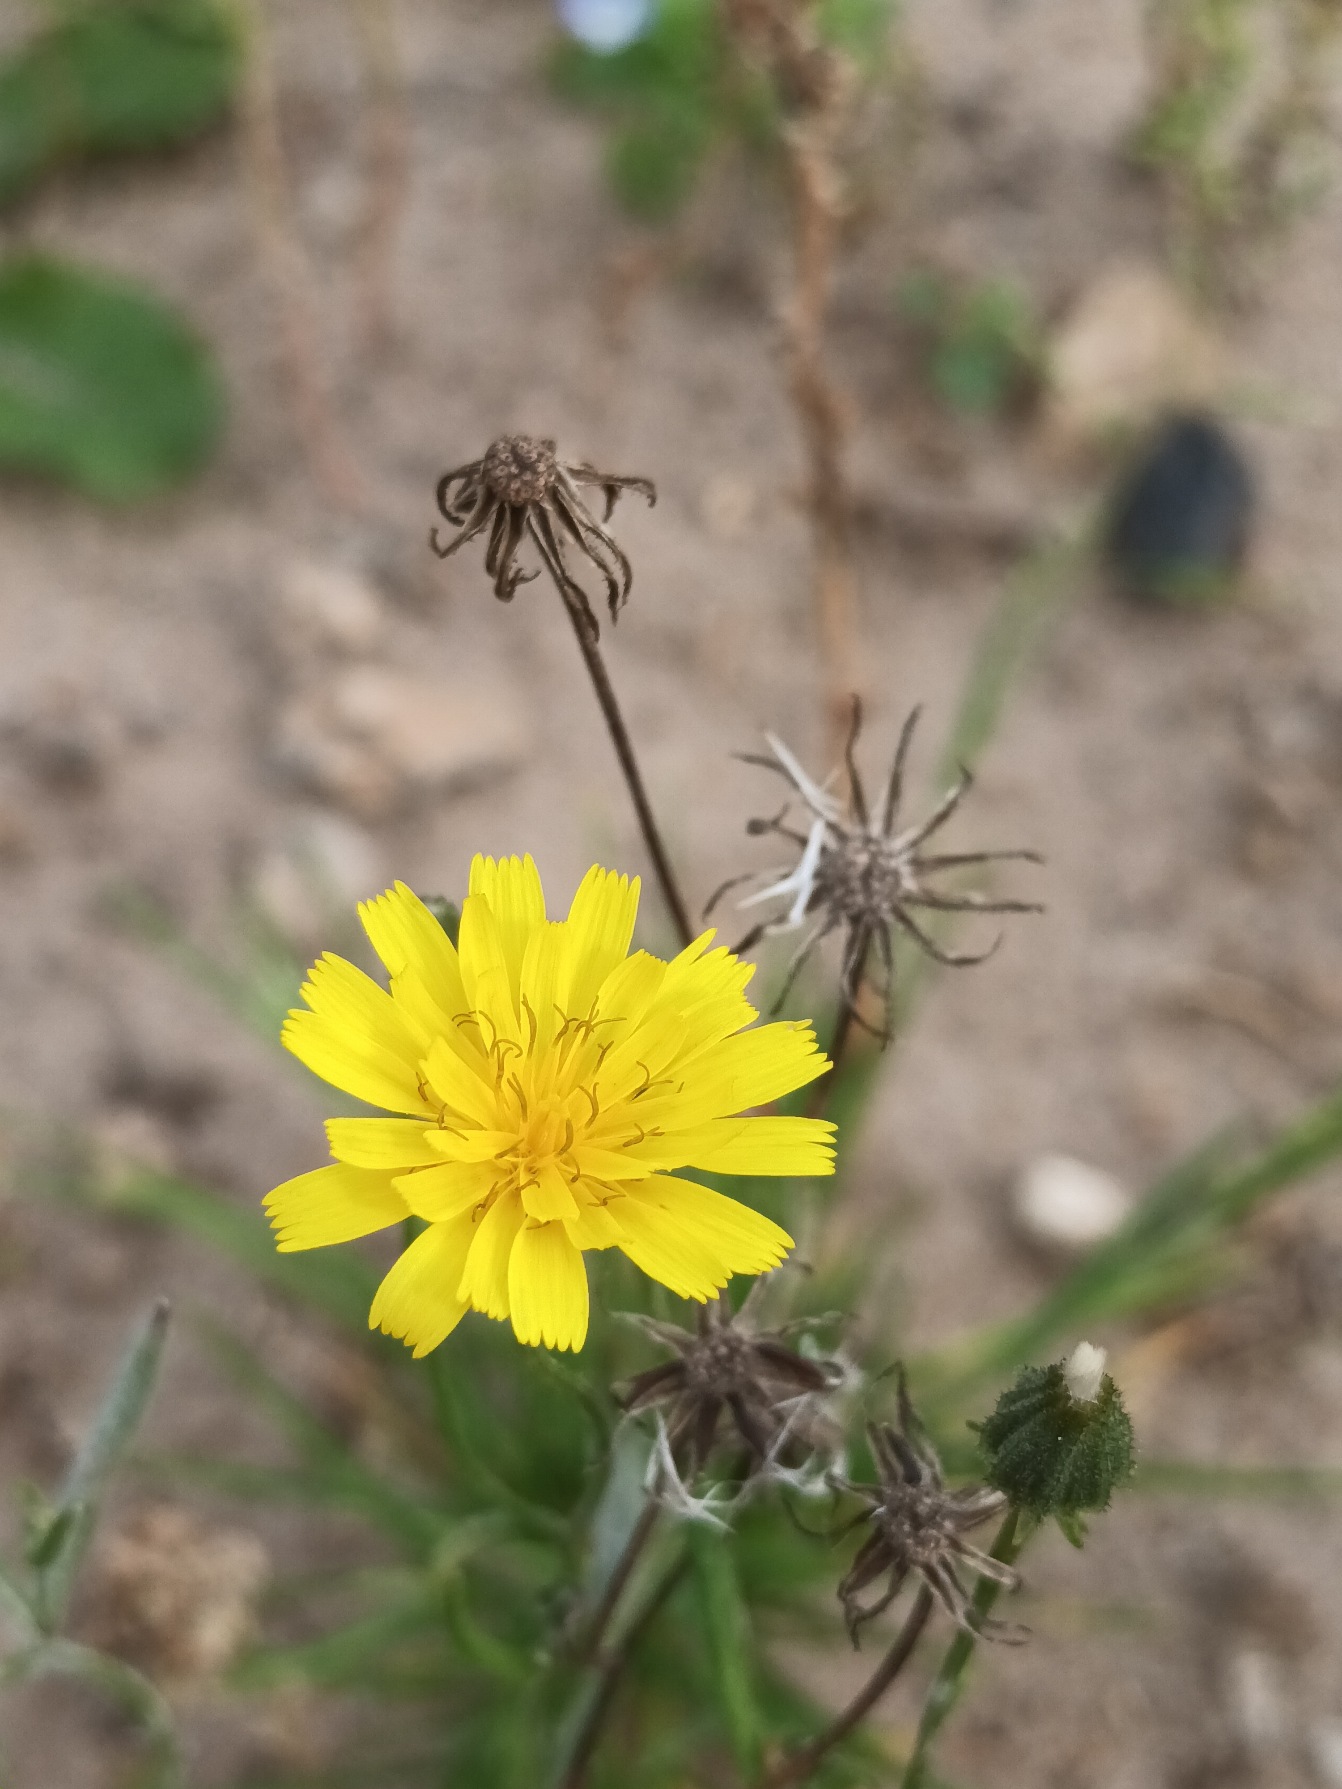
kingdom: Plantae
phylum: Tracheophyta
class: Magnoliopsida
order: Asterales
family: Asteraceae
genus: Crepis
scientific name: Crepis tectorum
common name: Tag-høgeskæg
